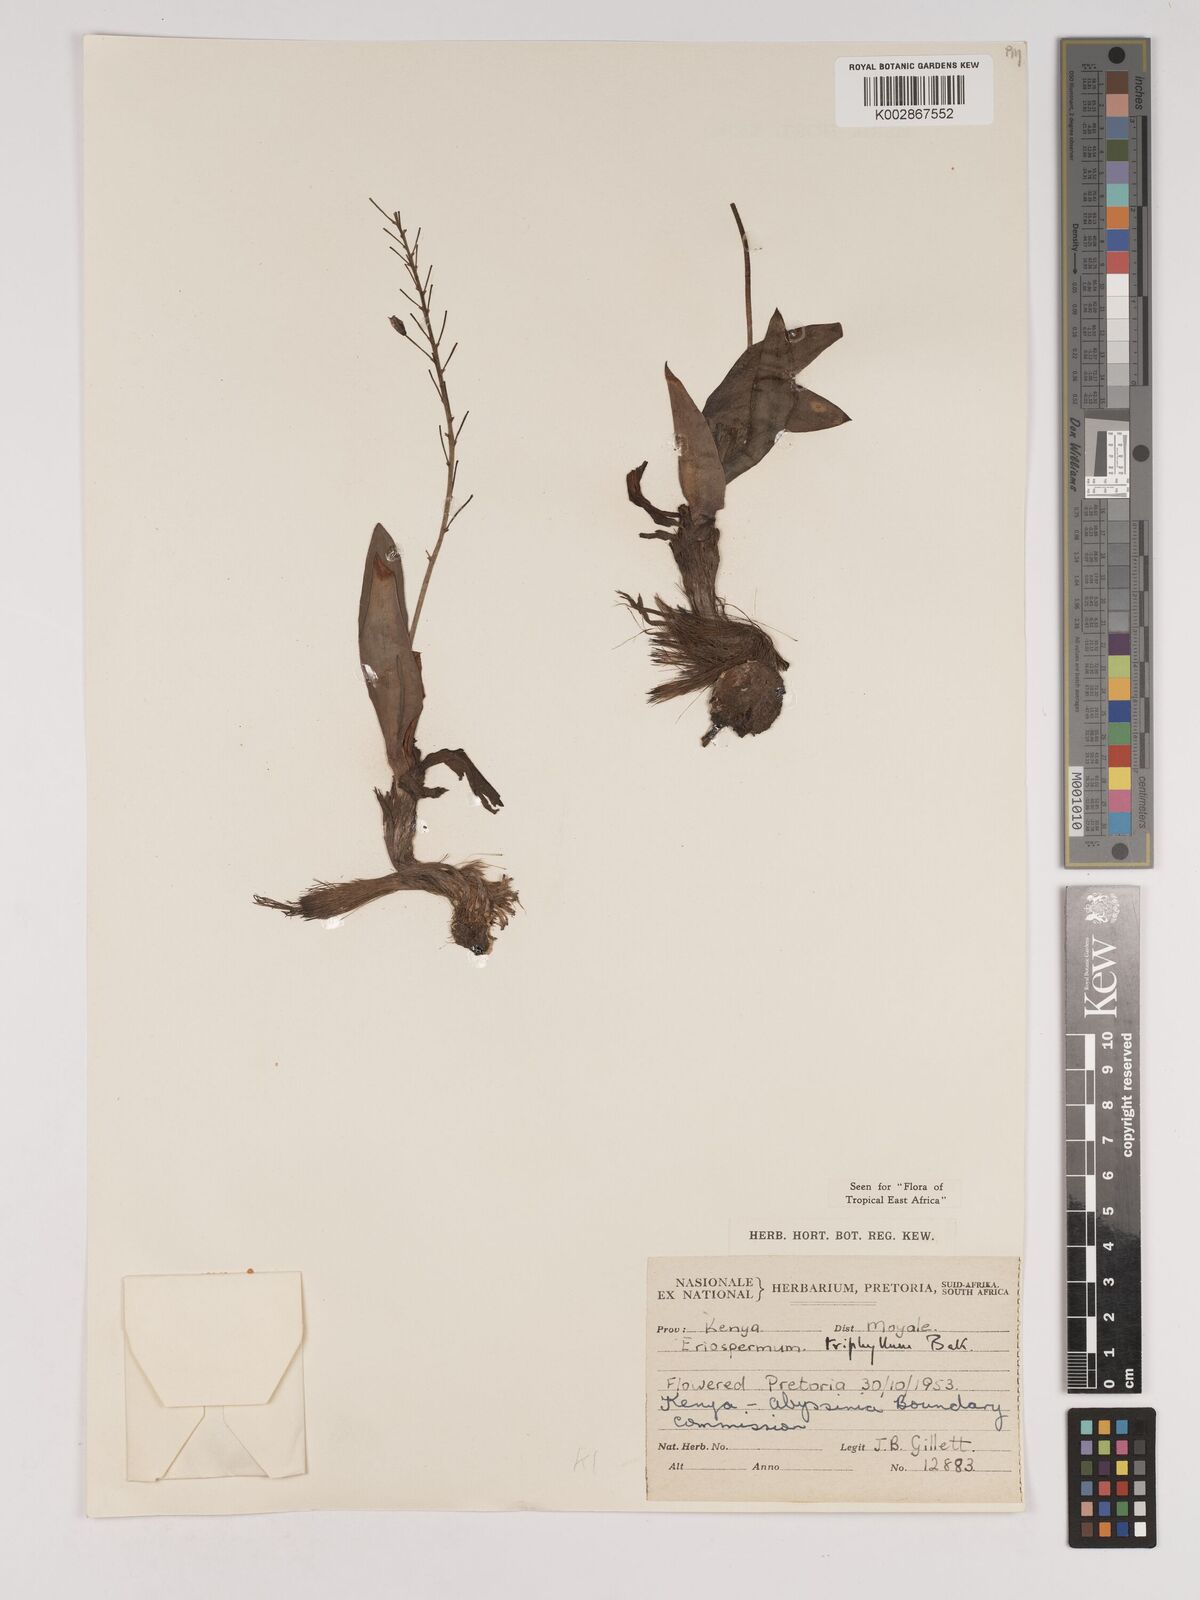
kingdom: Plantae
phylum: Tracheophyta
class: Liliopsida
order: Asparagales
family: Asparagaceae
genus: Eriospermum
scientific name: Eriospermum triphyllum
